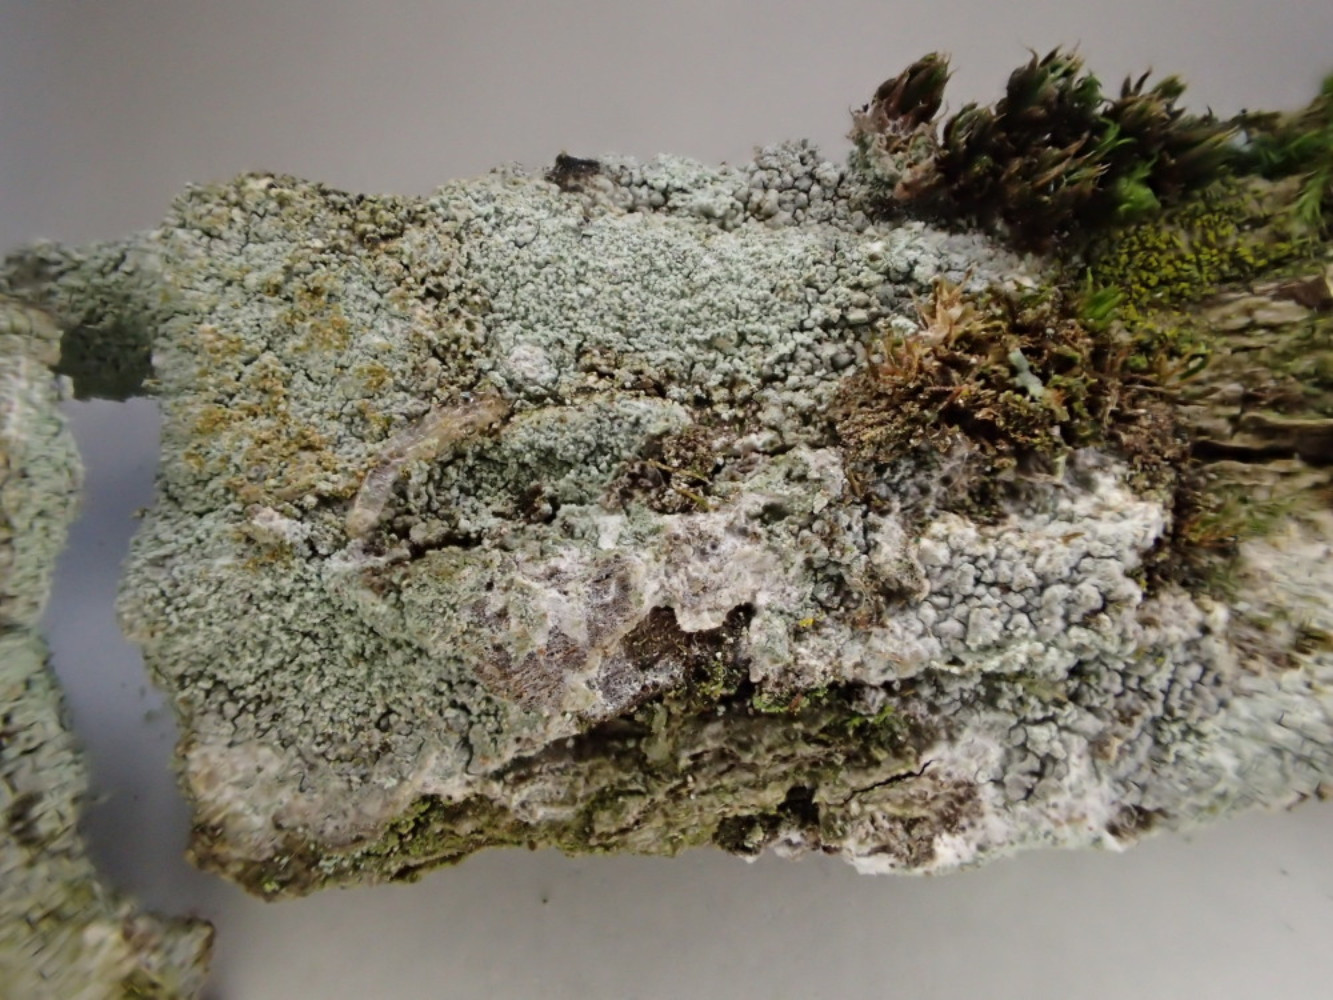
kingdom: Fungi
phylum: Ascomycota
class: Lecanoromycetes
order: Ostropales
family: Phlyctidaceae
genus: Phlyctis
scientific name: Phlyctis argena
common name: almindelig sølvlav
